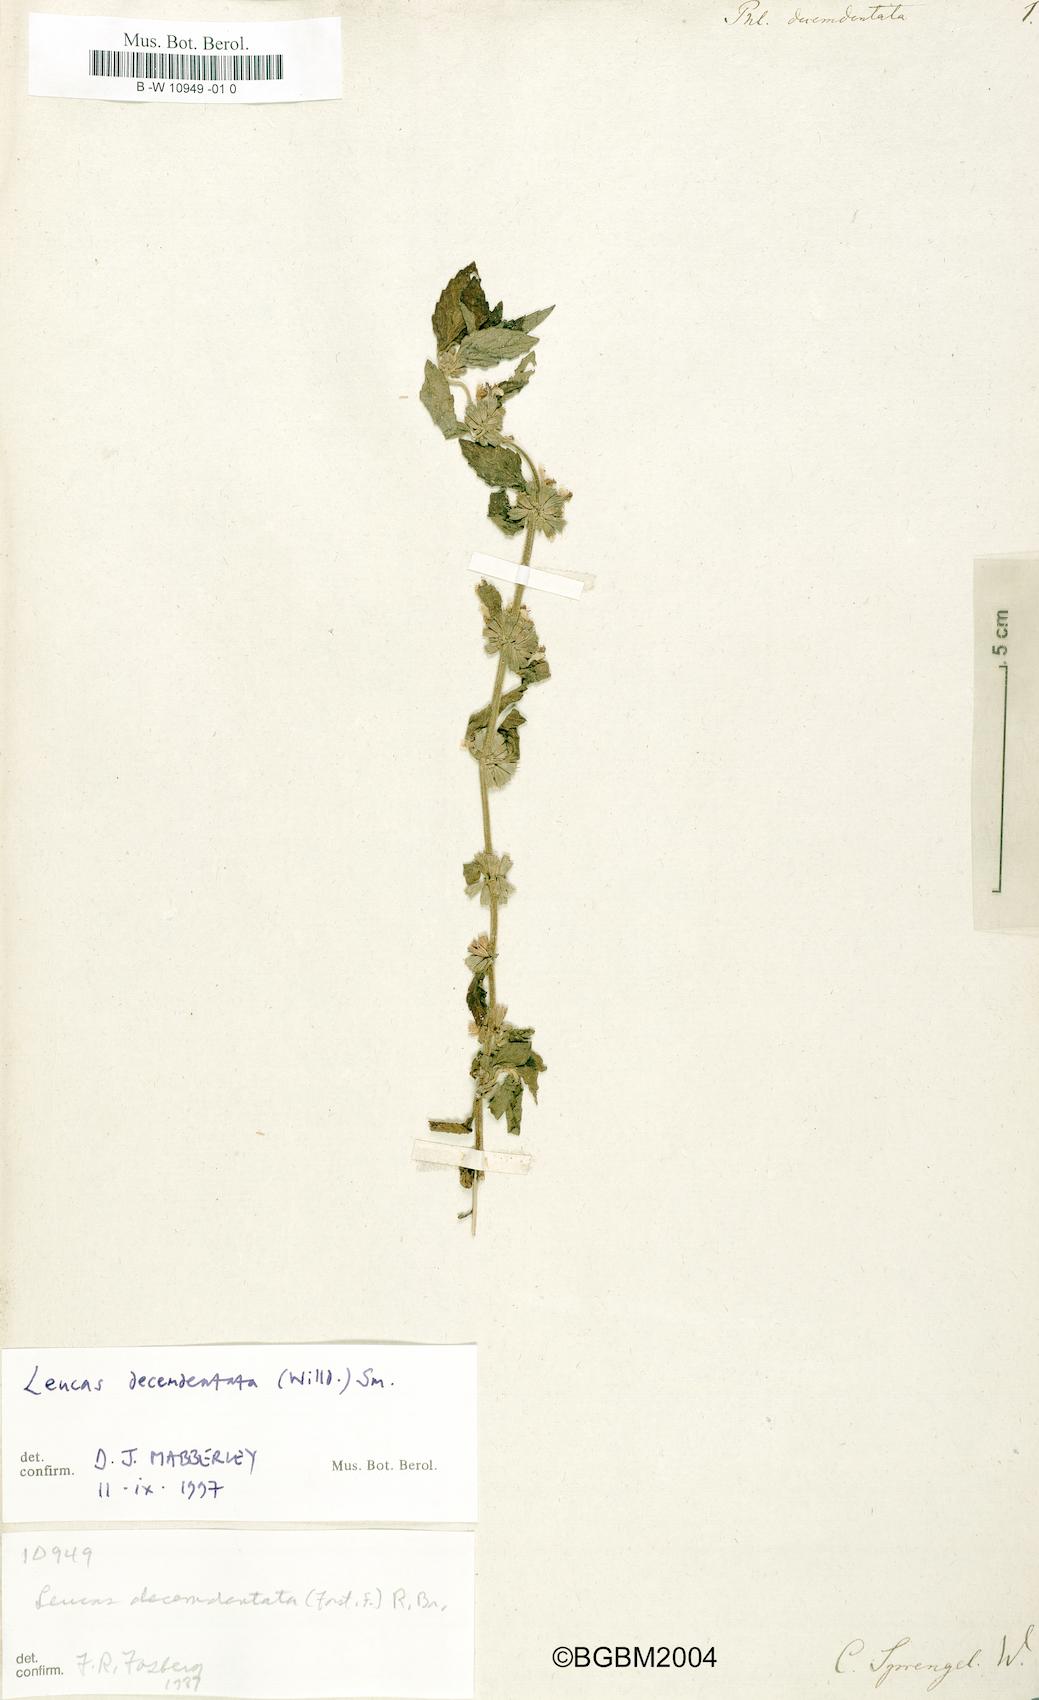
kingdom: Plantae
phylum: Tracheophyta
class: Magnoliopsida
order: Lamiales
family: Lamiaceae
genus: Leucas
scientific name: Leucas decemdentata
